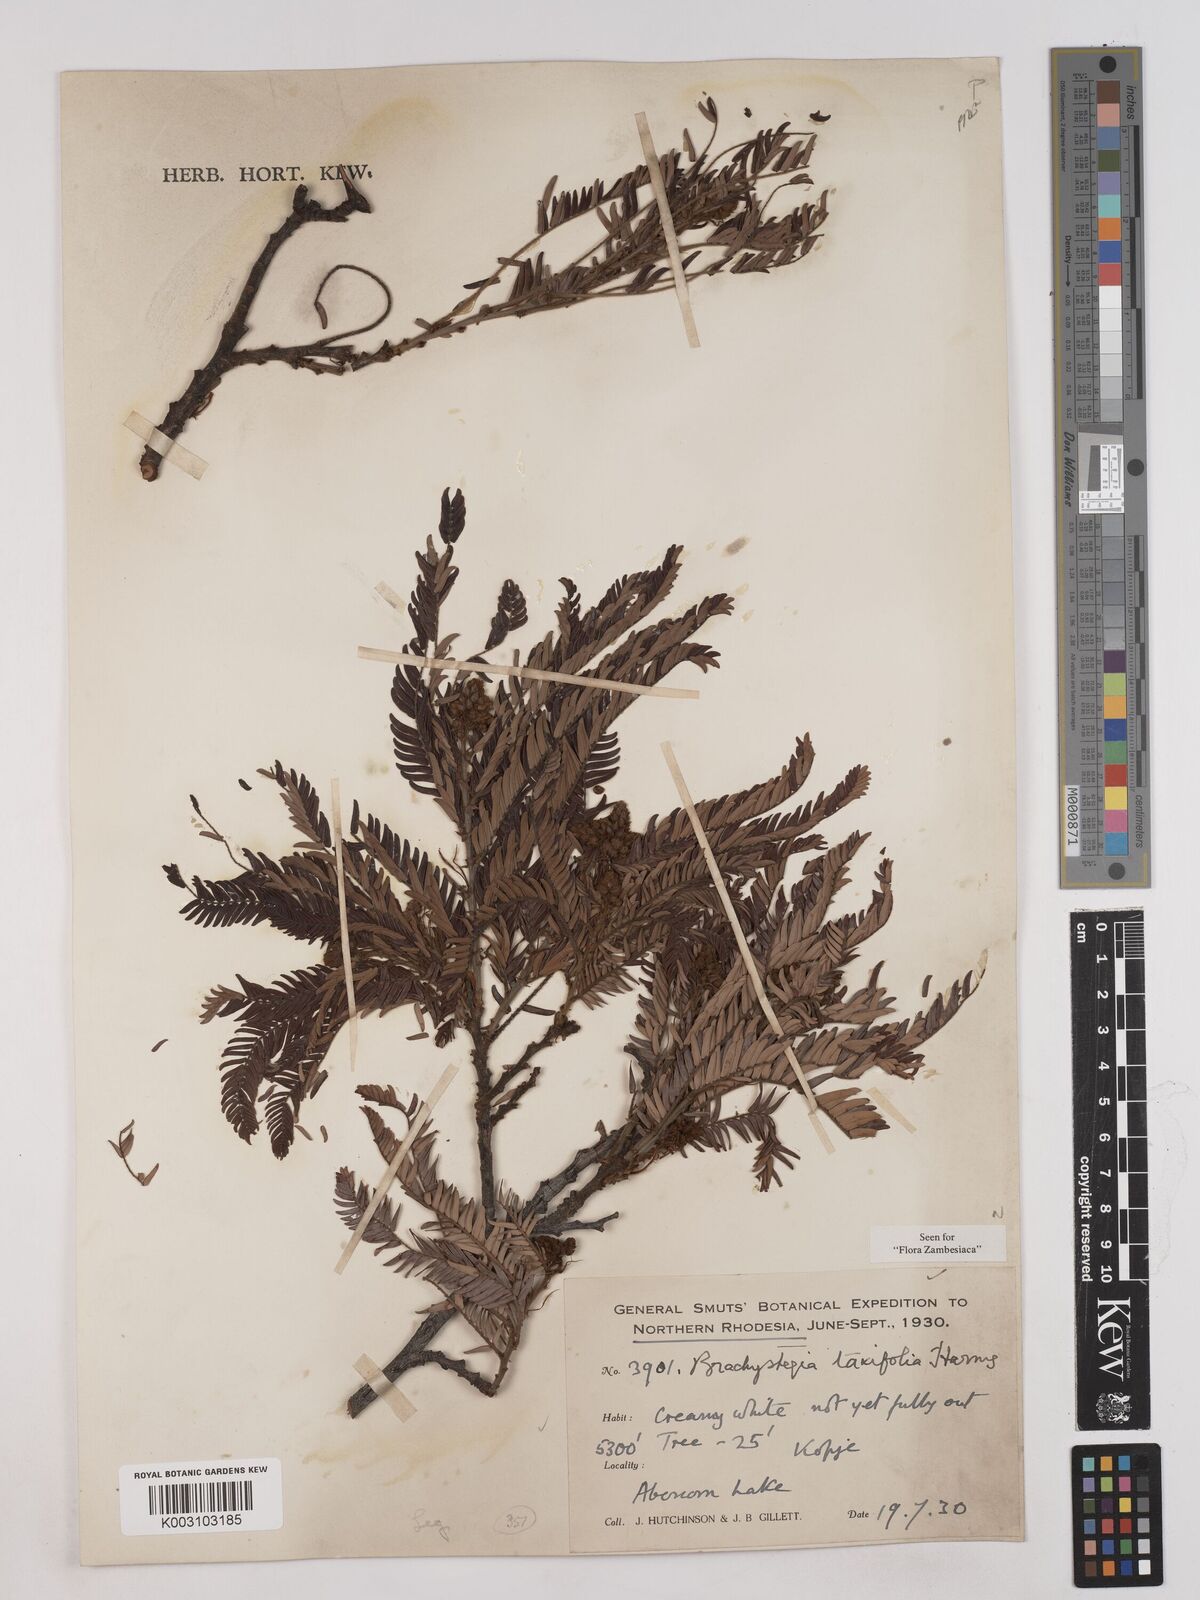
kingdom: Plantae
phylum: Tracheophyta
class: Magnoliopsida
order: Fabales
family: Fabaceae
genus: Brachystegia
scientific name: Brachystegia taxifolia
